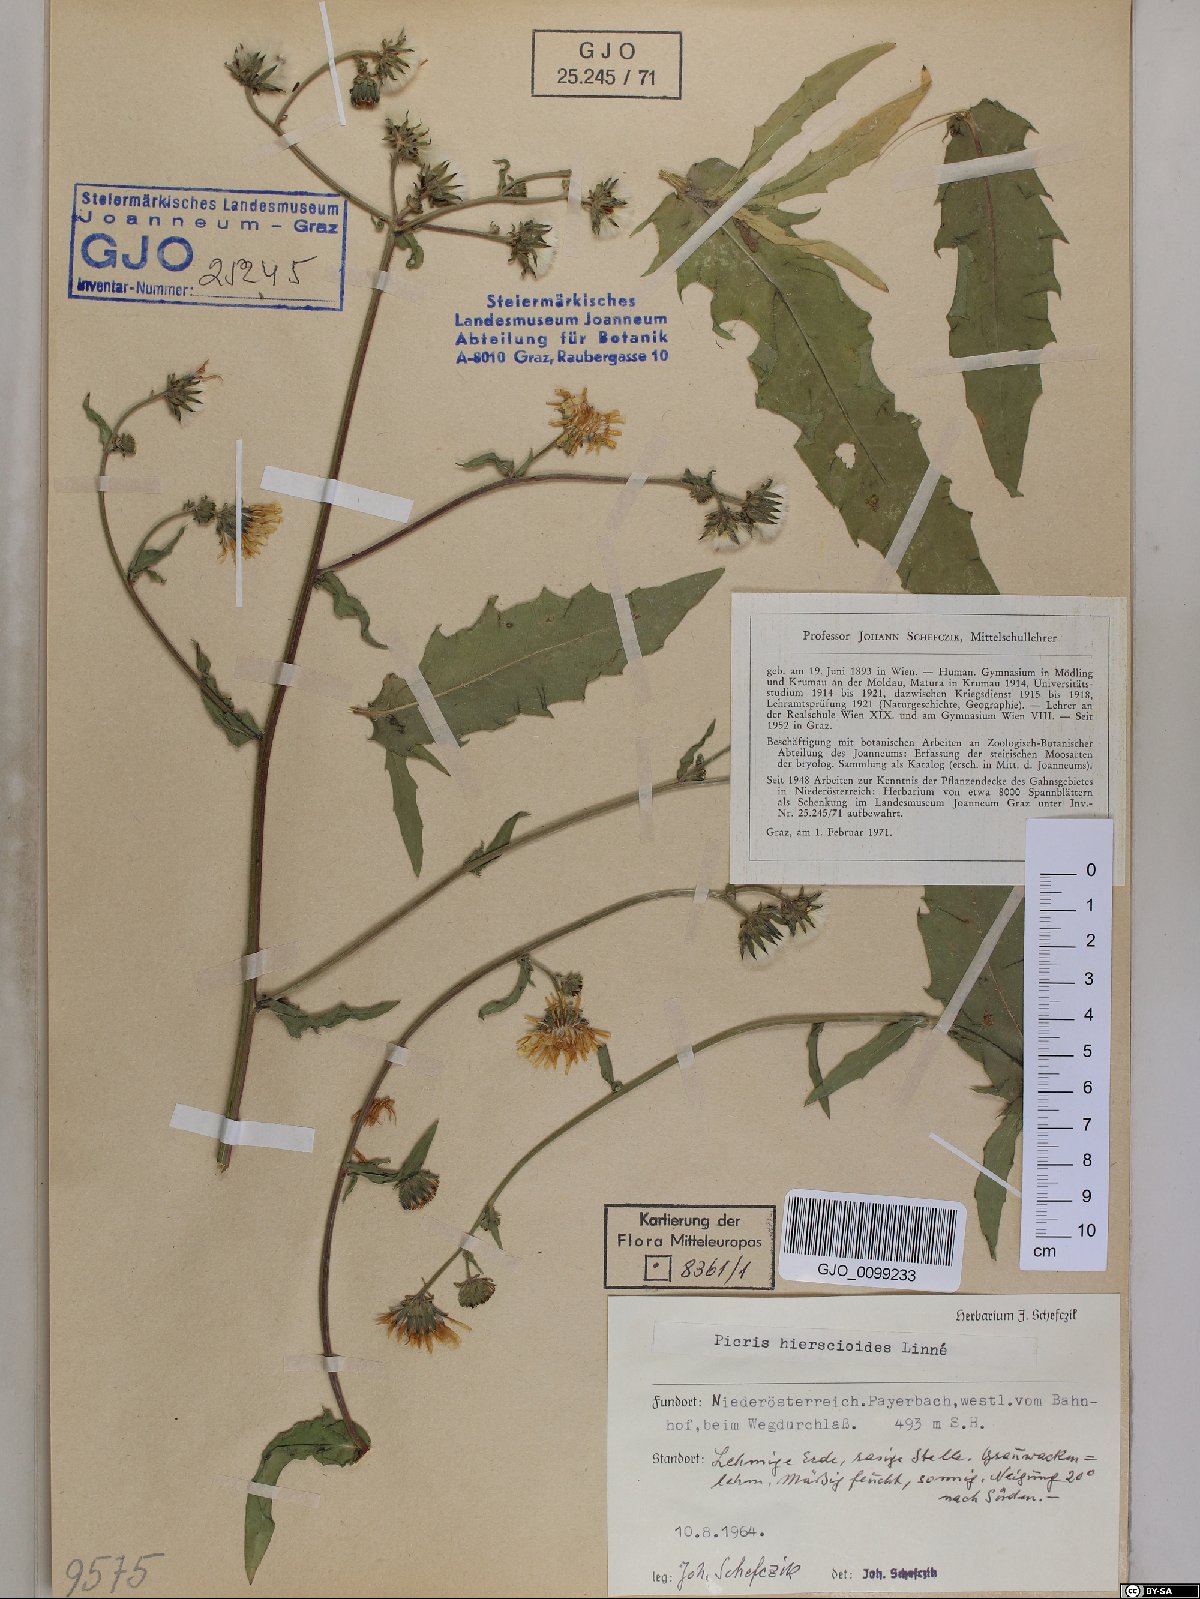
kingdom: Plantae
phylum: Tracheophyta
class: Magnoliopsida
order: Asterales
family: Asteraceae
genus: Picris
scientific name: Picris hieracioides
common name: Hawkweed oxtongue
